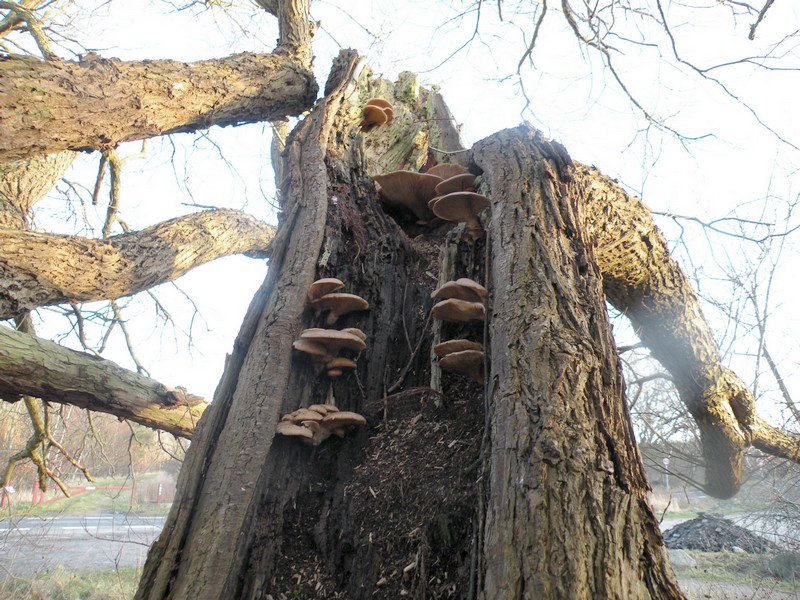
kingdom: Fungi
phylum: Basidiomycota
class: Agaricomycetes
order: Agaricales
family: Pleurotaceae
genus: Pleurotus
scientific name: Pleurotus ostreatus
